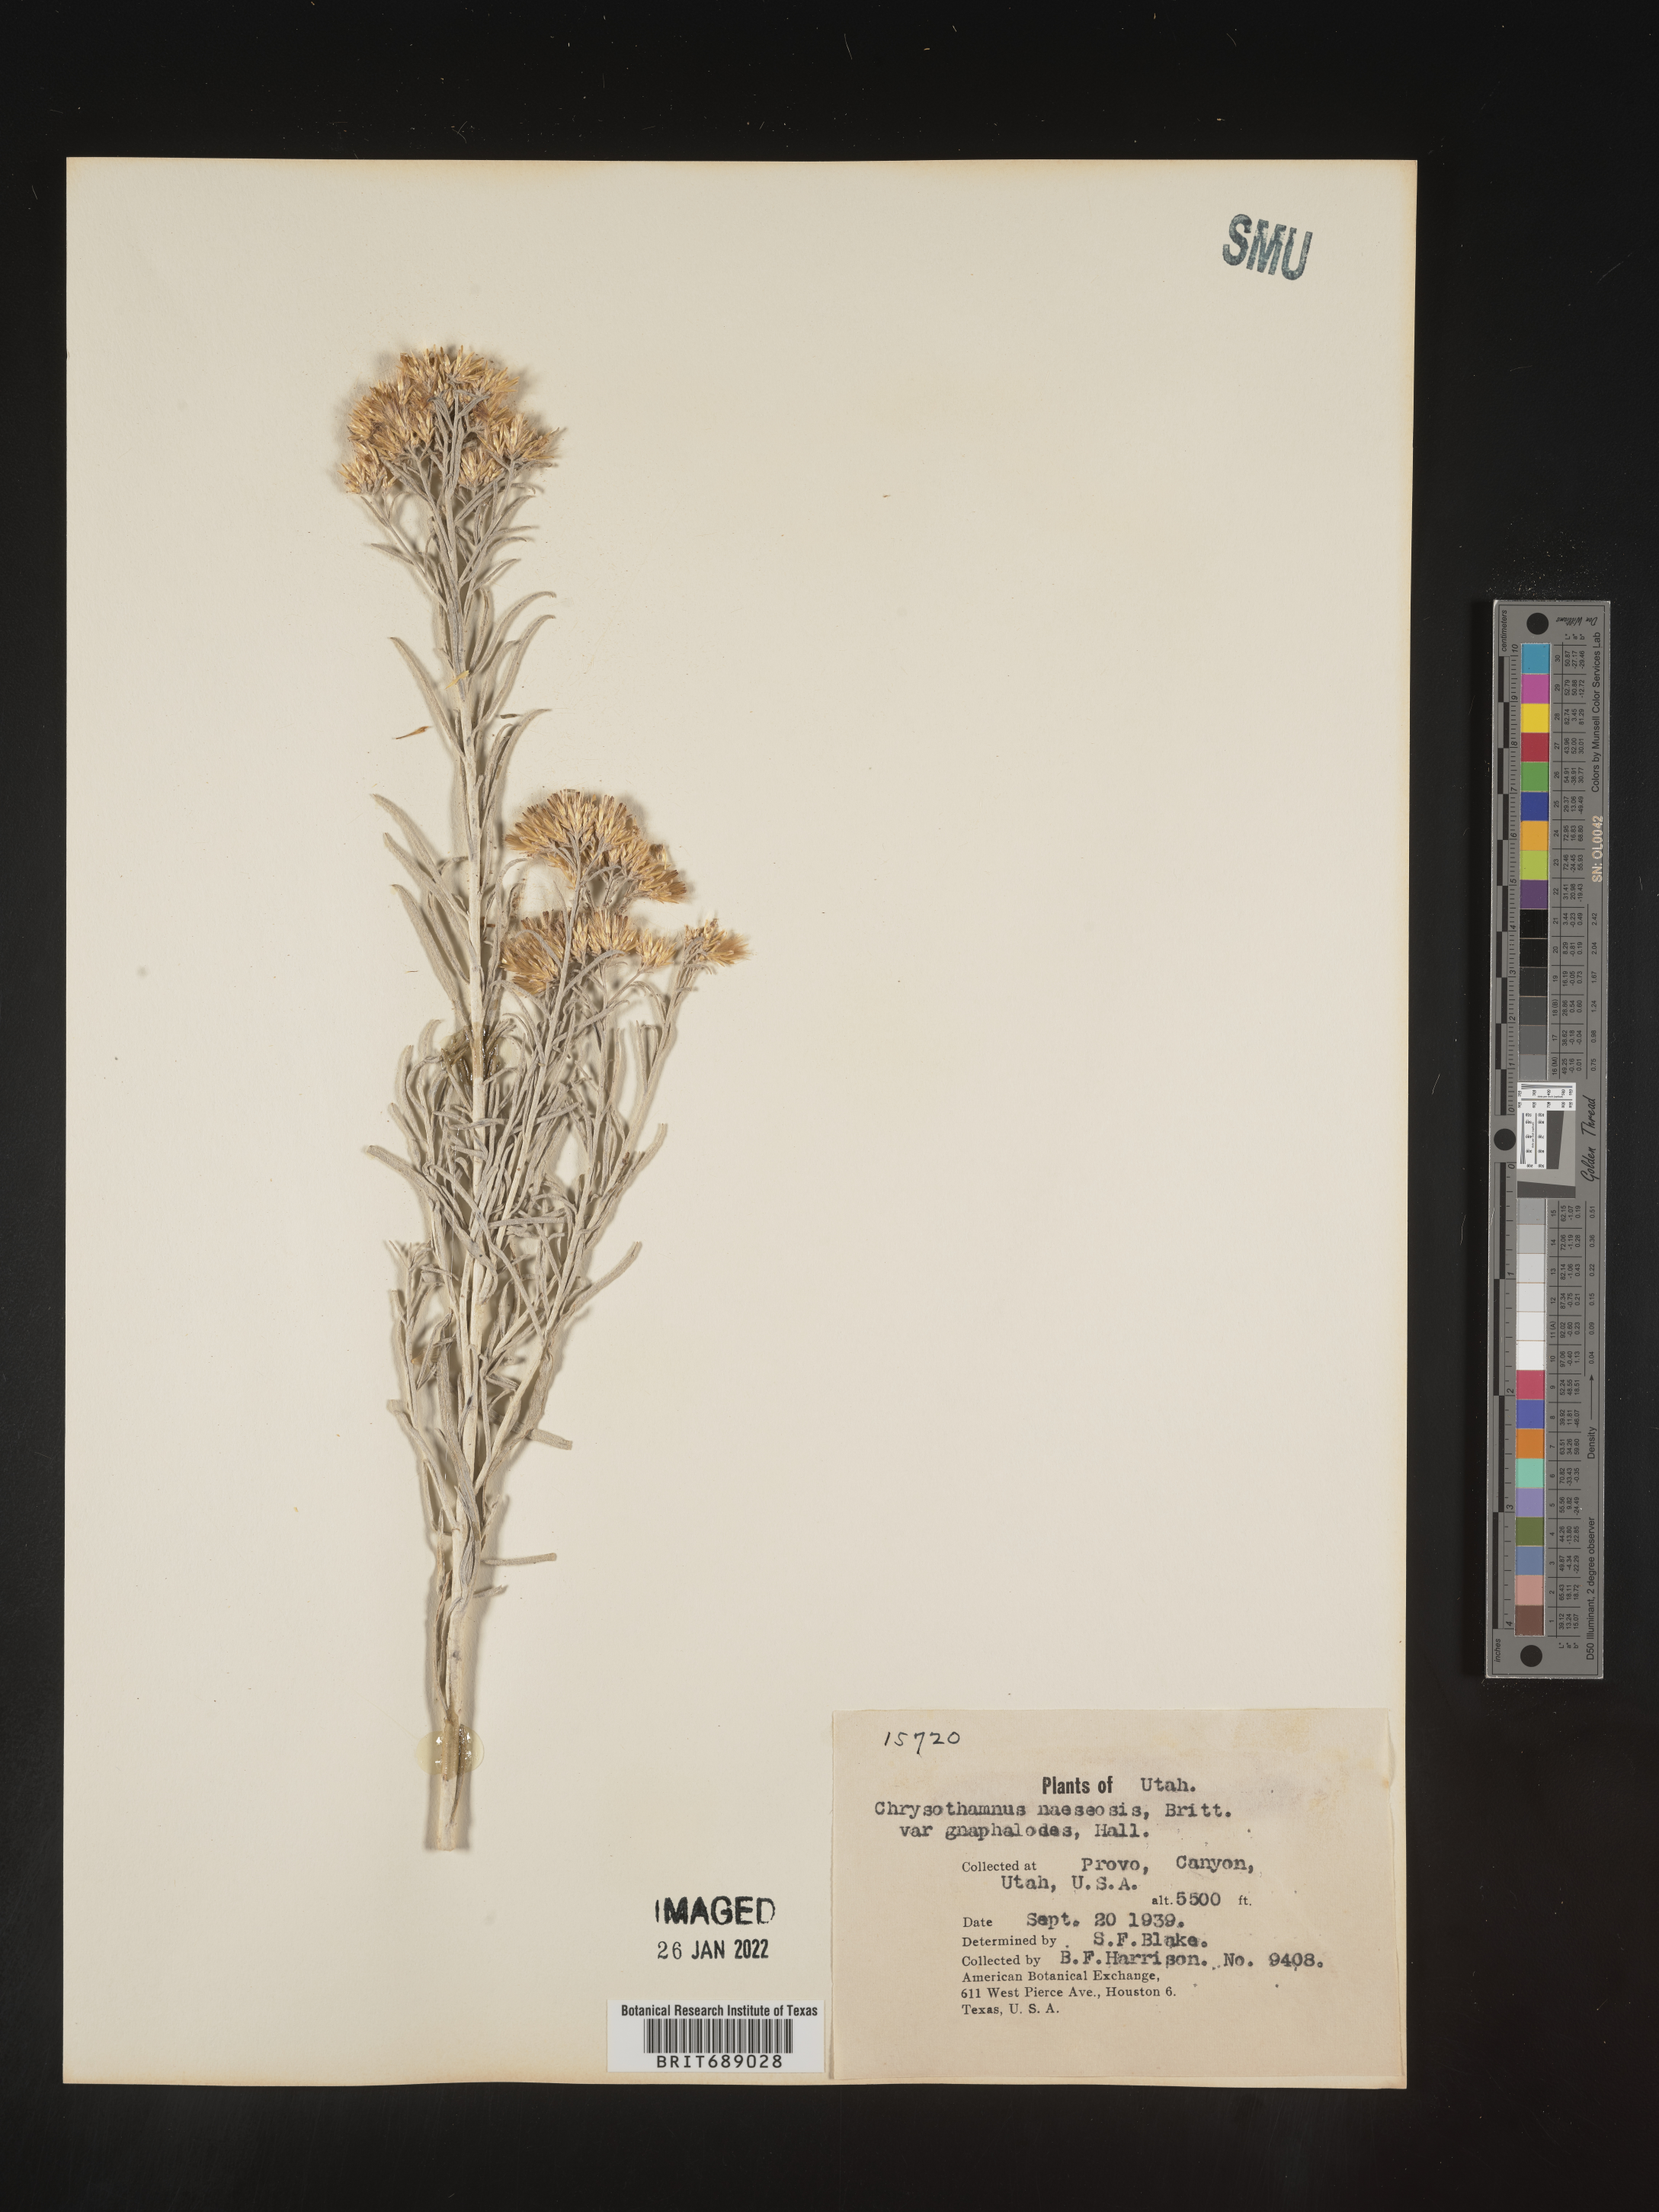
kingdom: Plantae
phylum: Tracheophyta
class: Magnoliopsida
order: Asterales
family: Asteraceae
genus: Ericameria
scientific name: Ericameria nauseosa
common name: Rubber rabbitbrush
